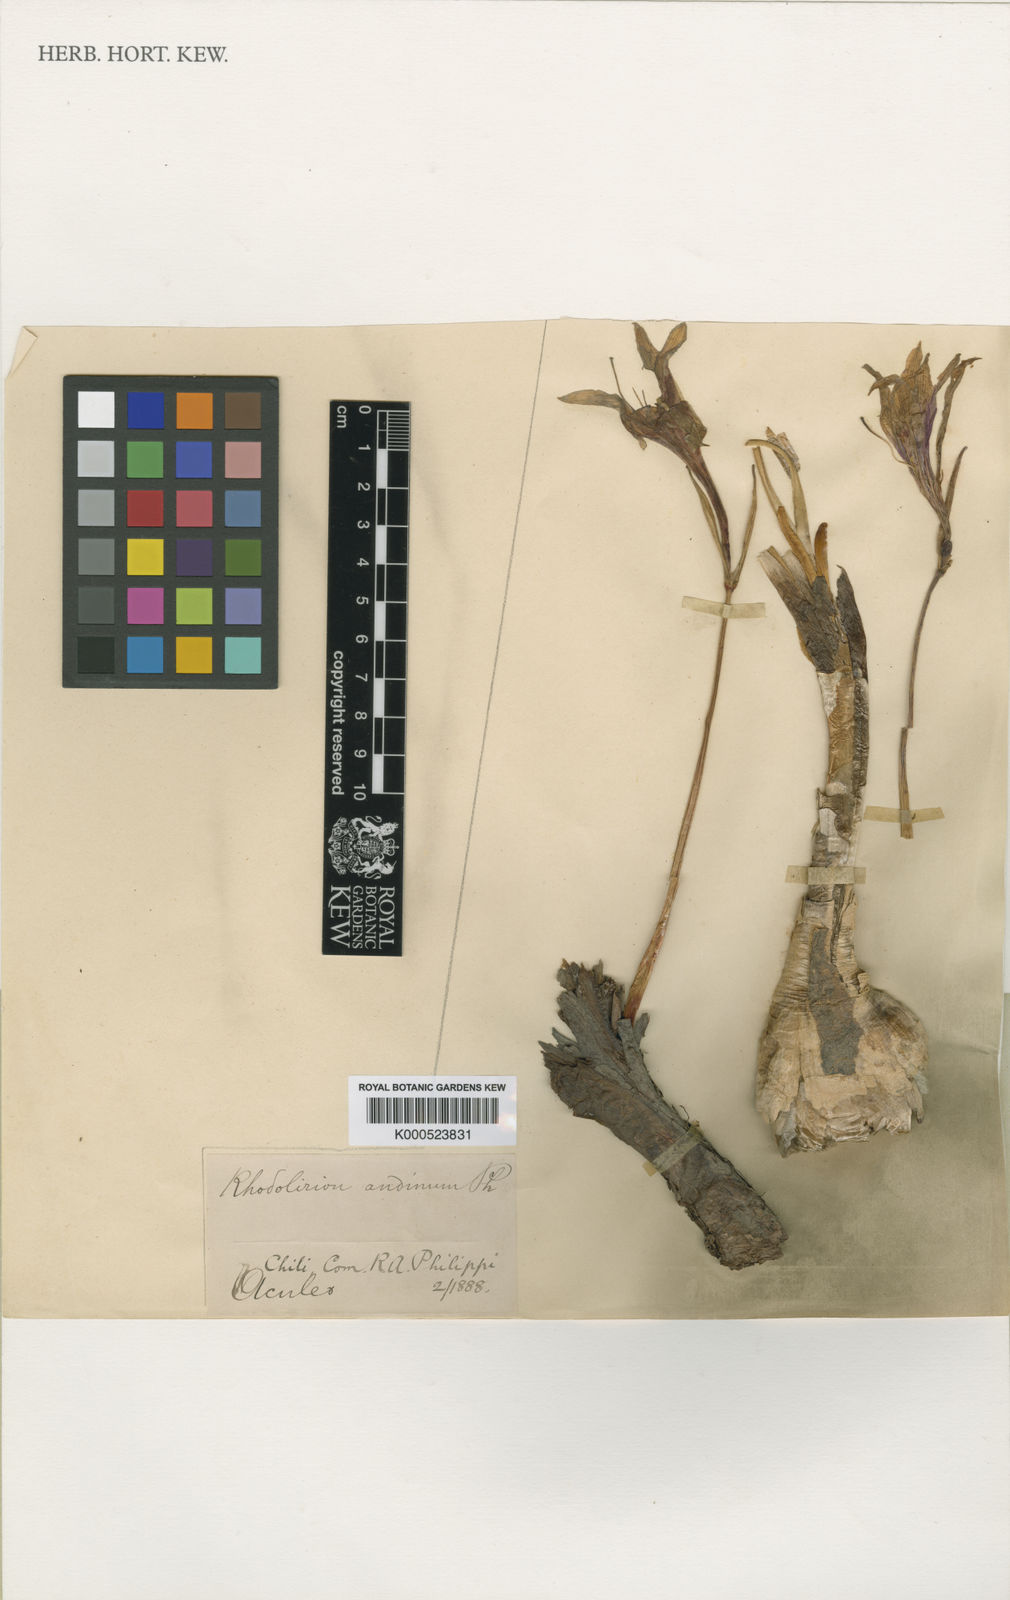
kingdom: Plantae
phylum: Tracheophyta
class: Liliopsida
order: Asparagales
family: Amaryllidaceae
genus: Rhodolirium
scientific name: Rhodolirium montanum
